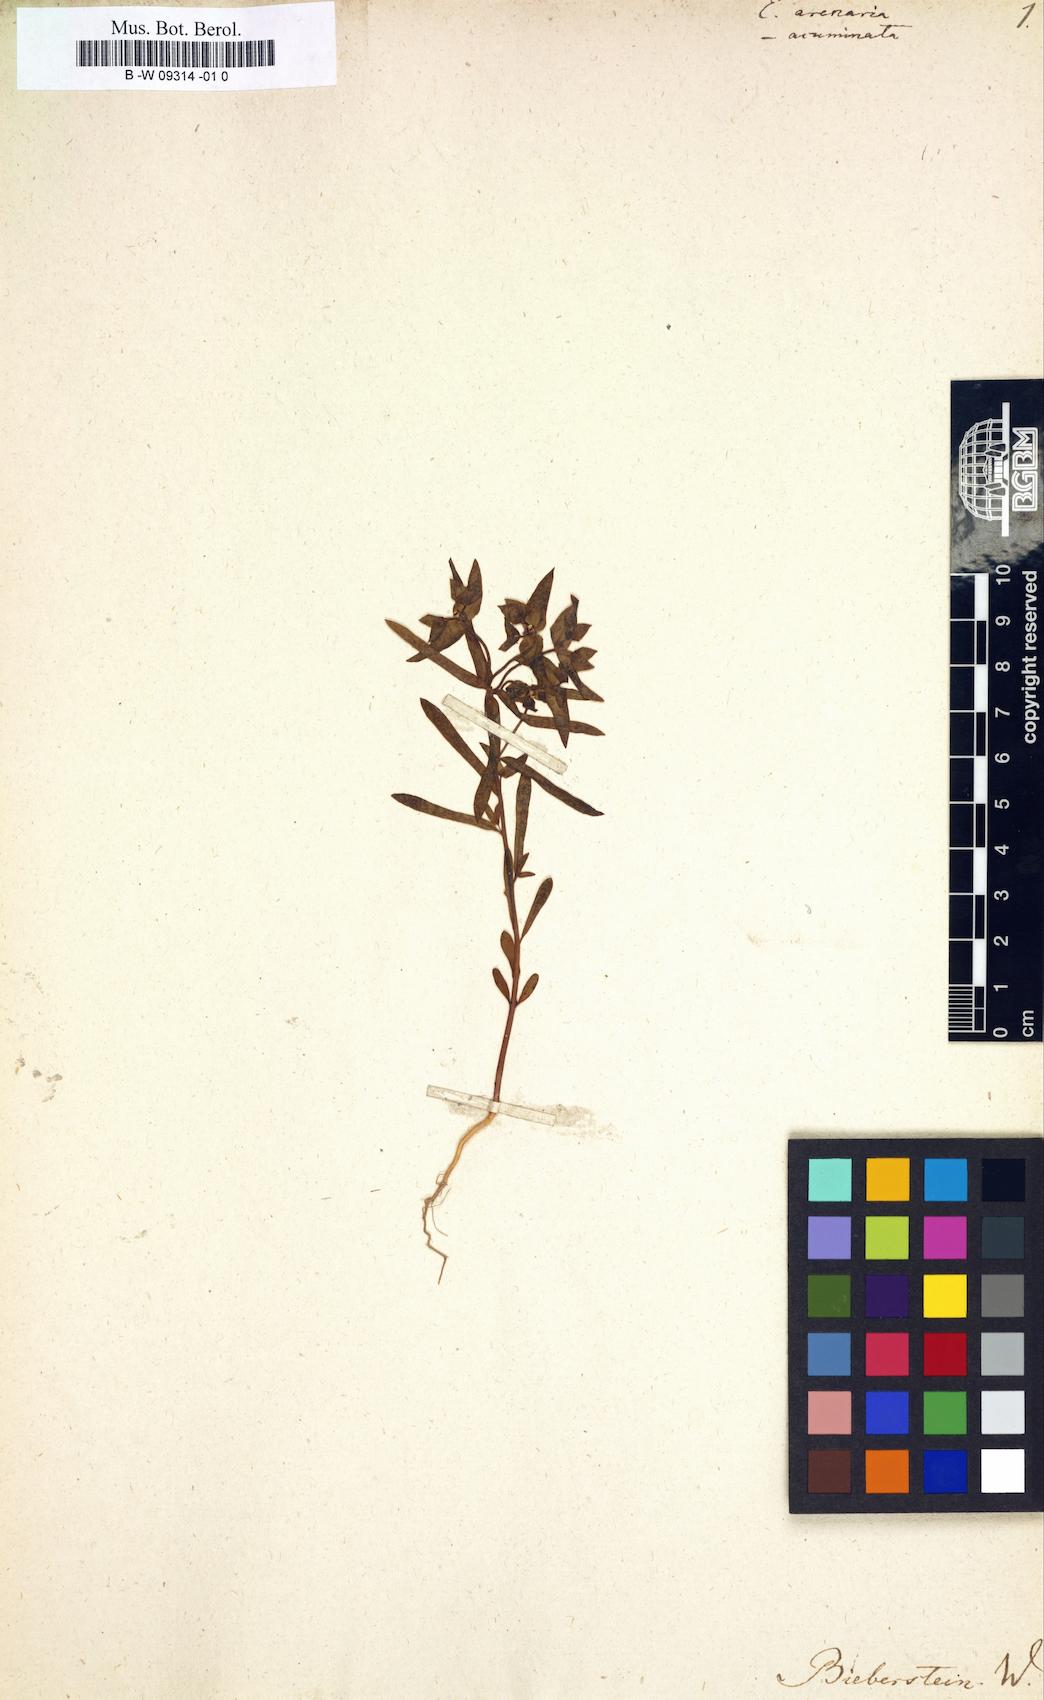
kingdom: Plantae
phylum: Tracheophyta
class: Magnoliopsida
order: Malpighiales
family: Euphorbiaceae
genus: Euphorbia
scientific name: Euphorbia arenaria
